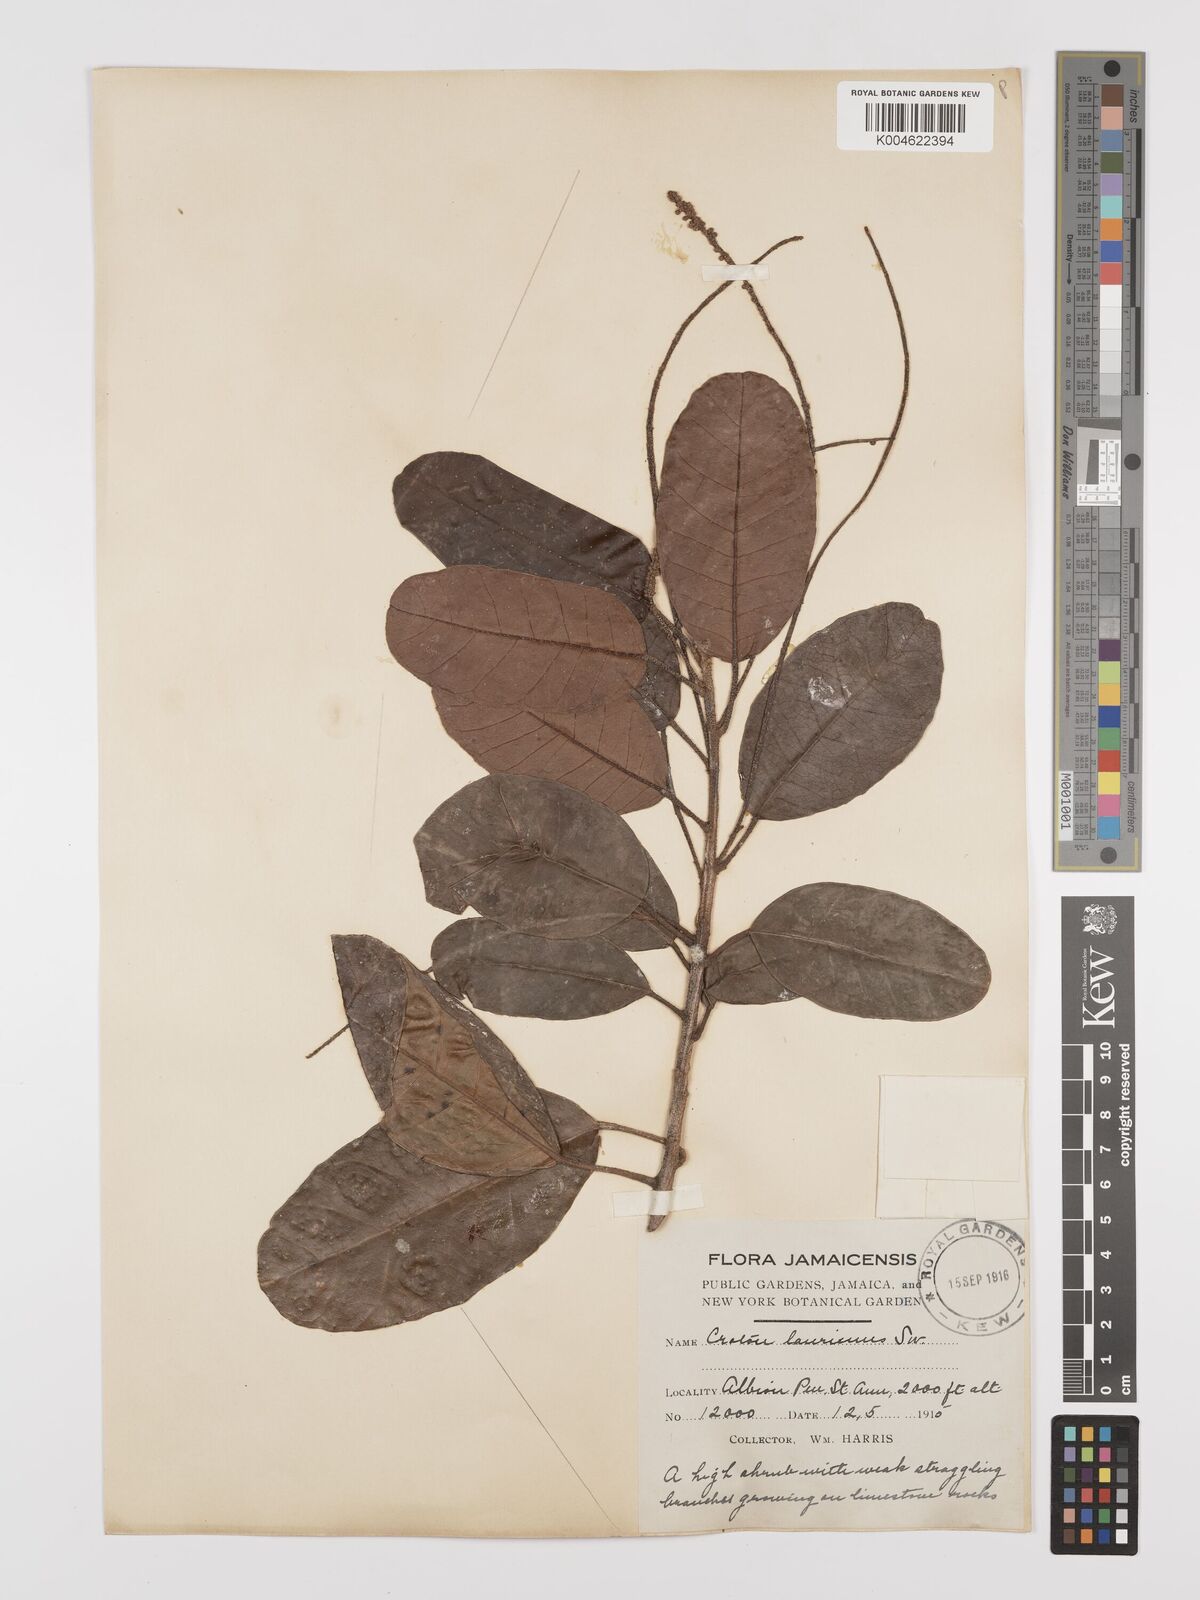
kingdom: Plantae
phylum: Tracheophyta
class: Magnoliopsida
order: Malpighiales
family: Euphorbiaceae
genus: Croton
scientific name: Croton laurinus
